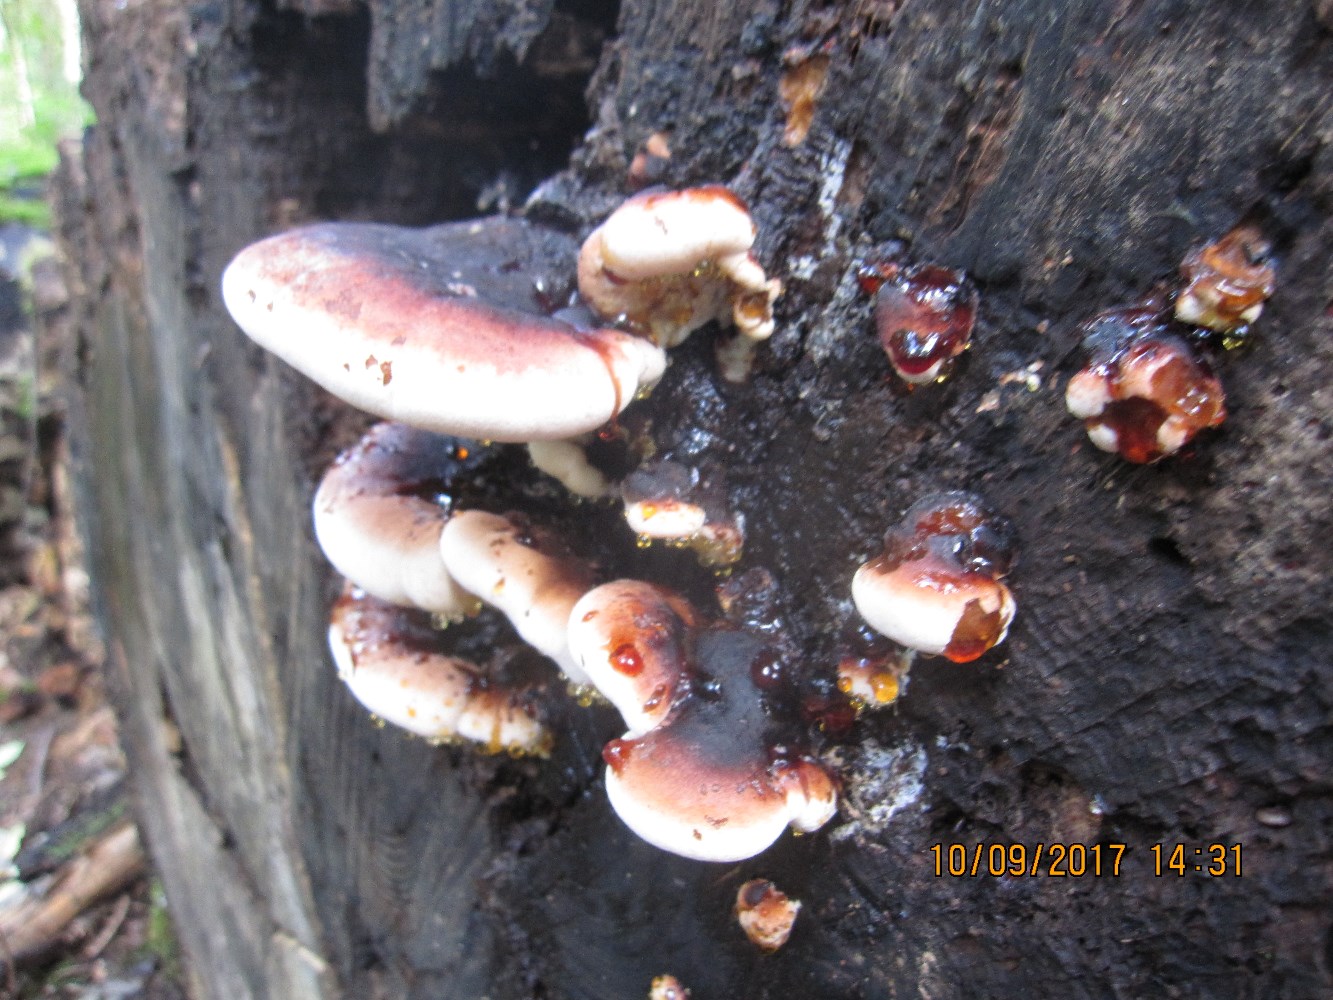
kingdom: Fungi
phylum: Basidiomycota
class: Agaricomycetes
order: Polyporales
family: Ischnodermataceae
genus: Ischnoderma
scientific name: Ischnoderma resinosum
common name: løv-tjæreporesvamp
